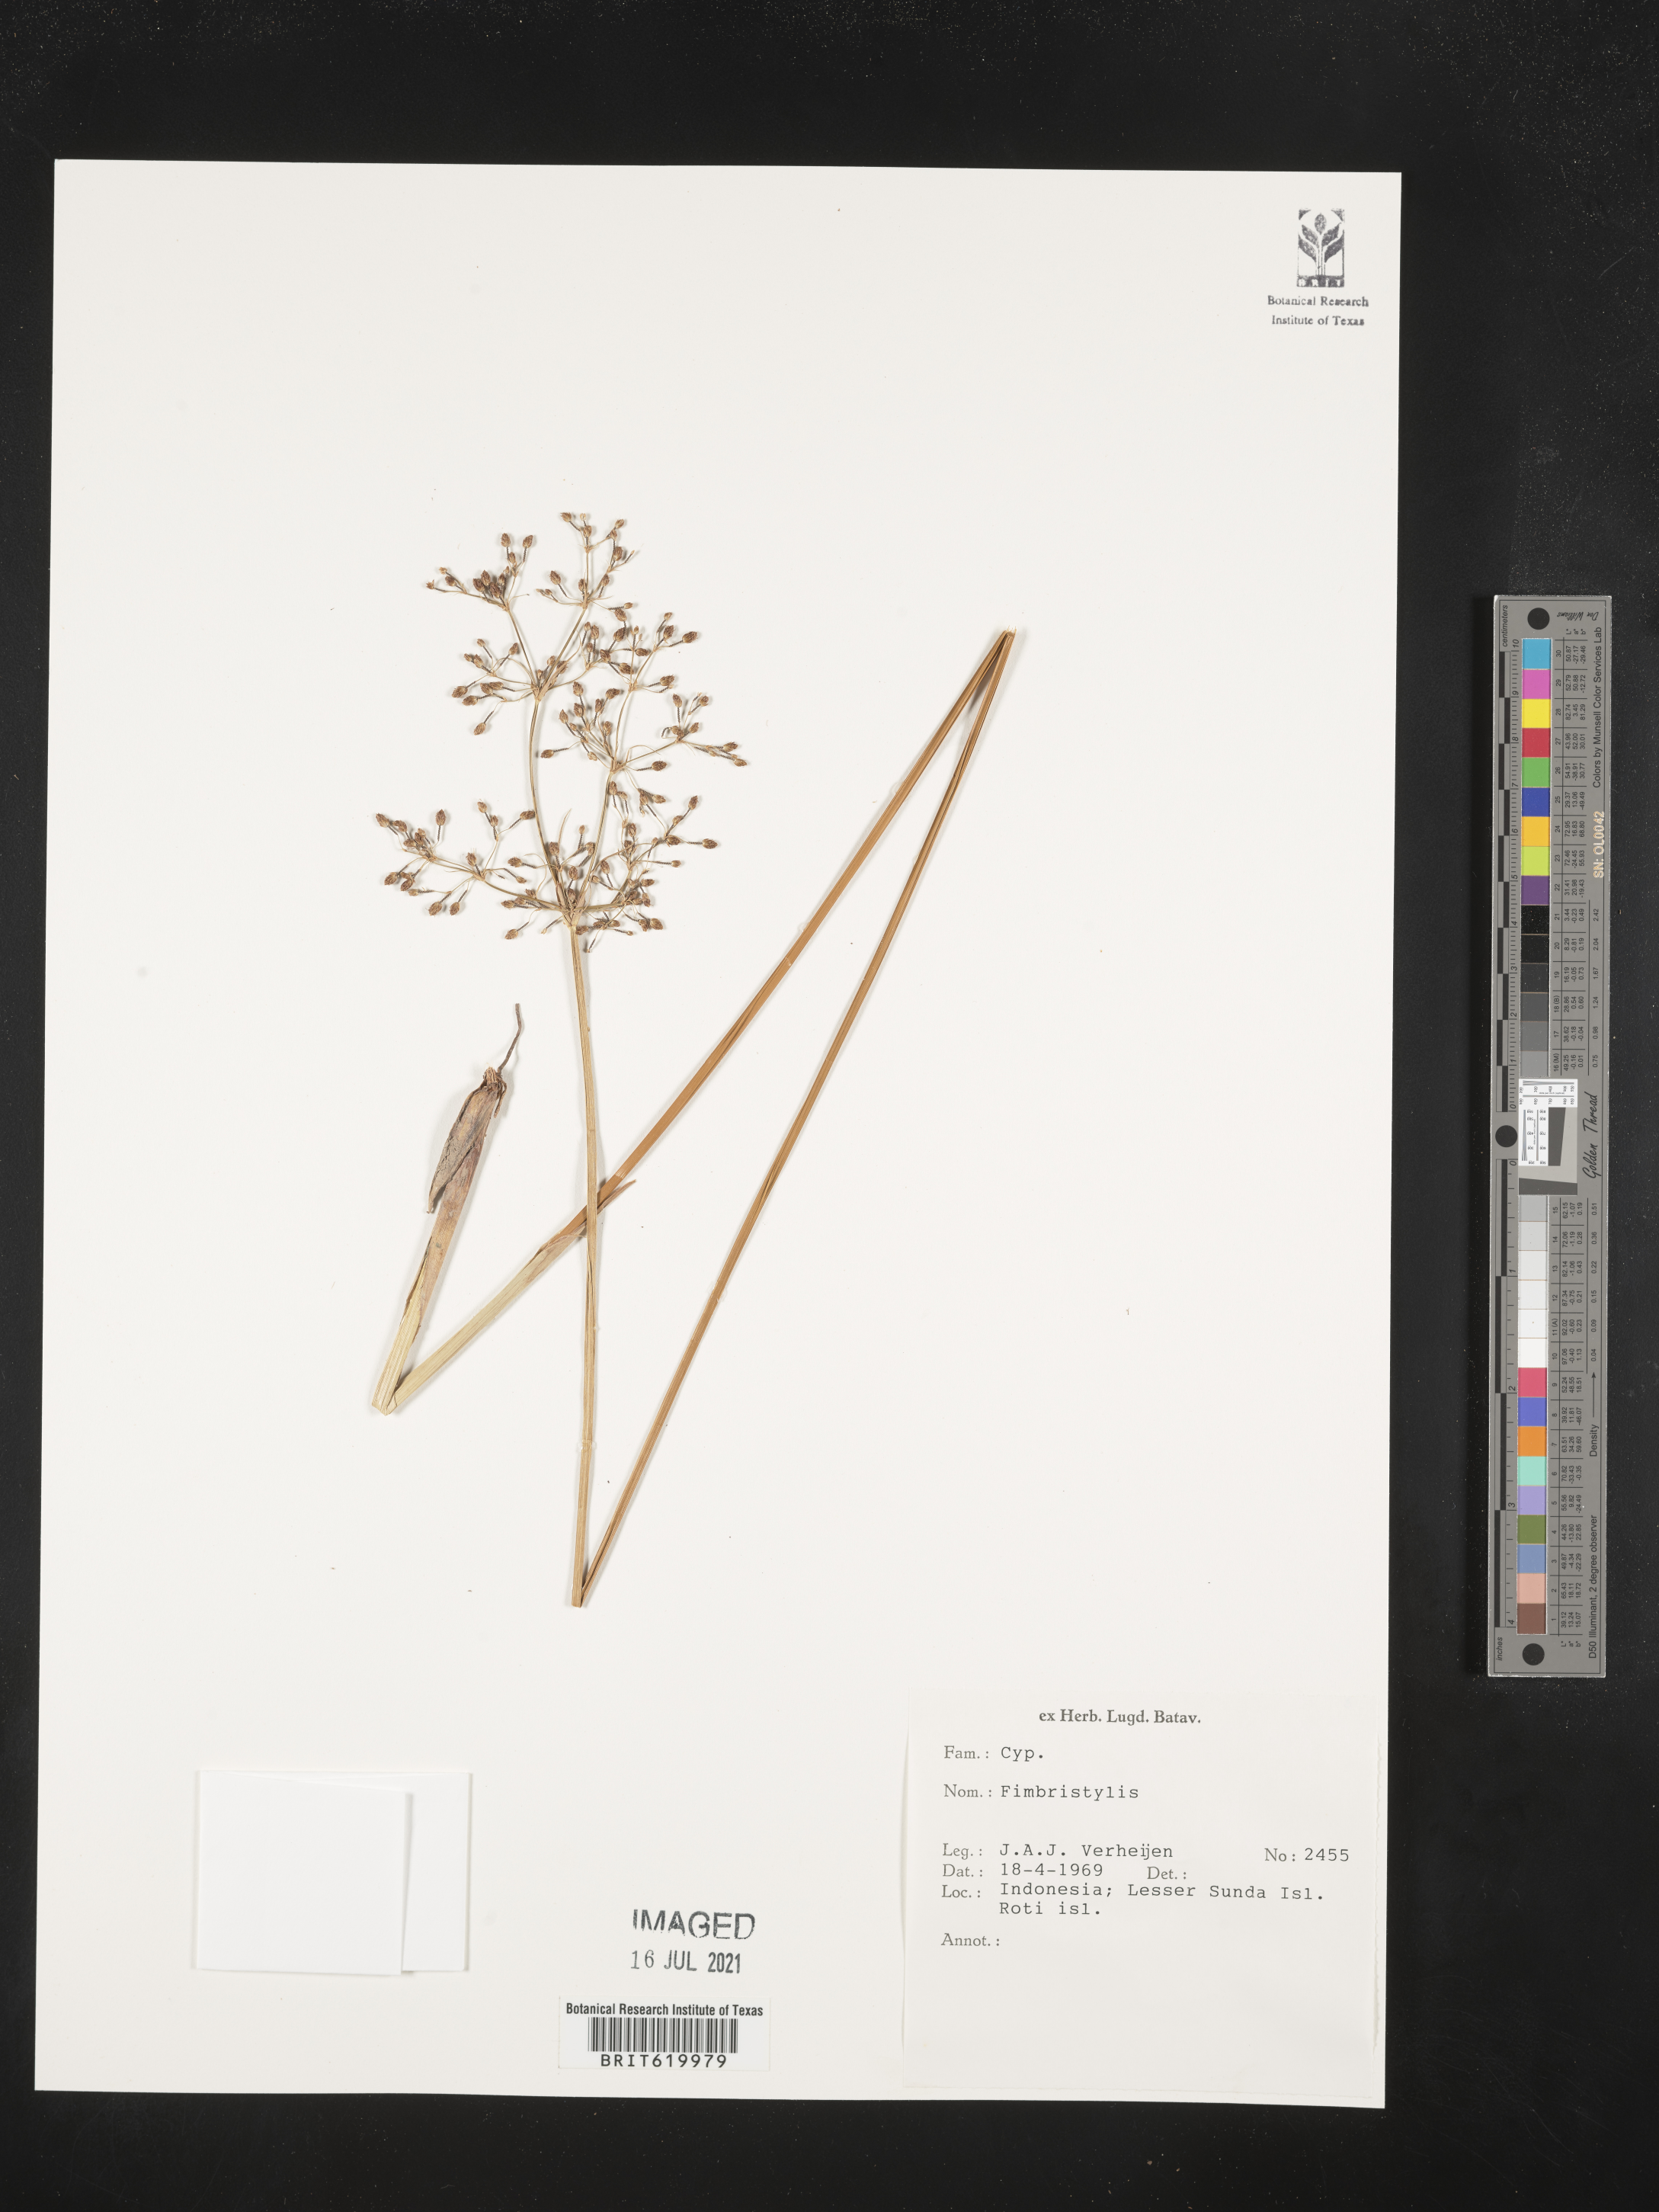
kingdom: Plantae
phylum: Tracheophyta
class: Liliopsida
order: Poales
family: Cyperaceae
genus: Fimbristylis
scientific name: Fimbristylis
